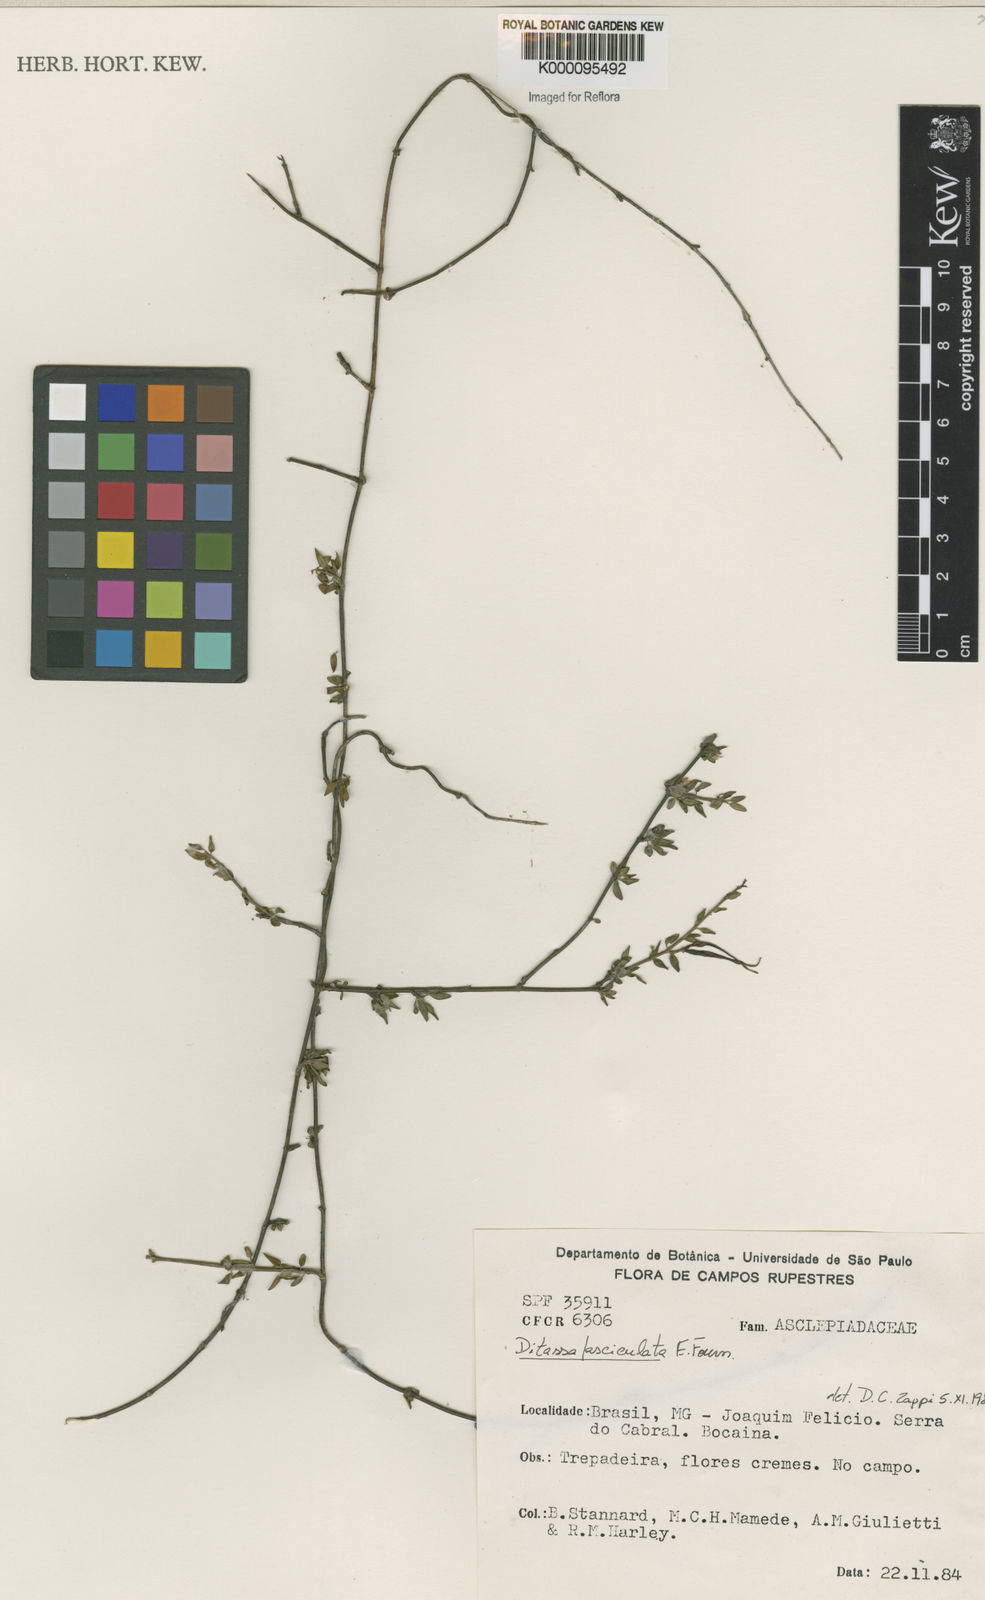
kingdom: Plantae
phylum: Tracheophyta
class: Magnoliopsida
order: Gentianales
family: Apocynaceae
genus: Ditassa
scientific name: Ditassa fasciculata
